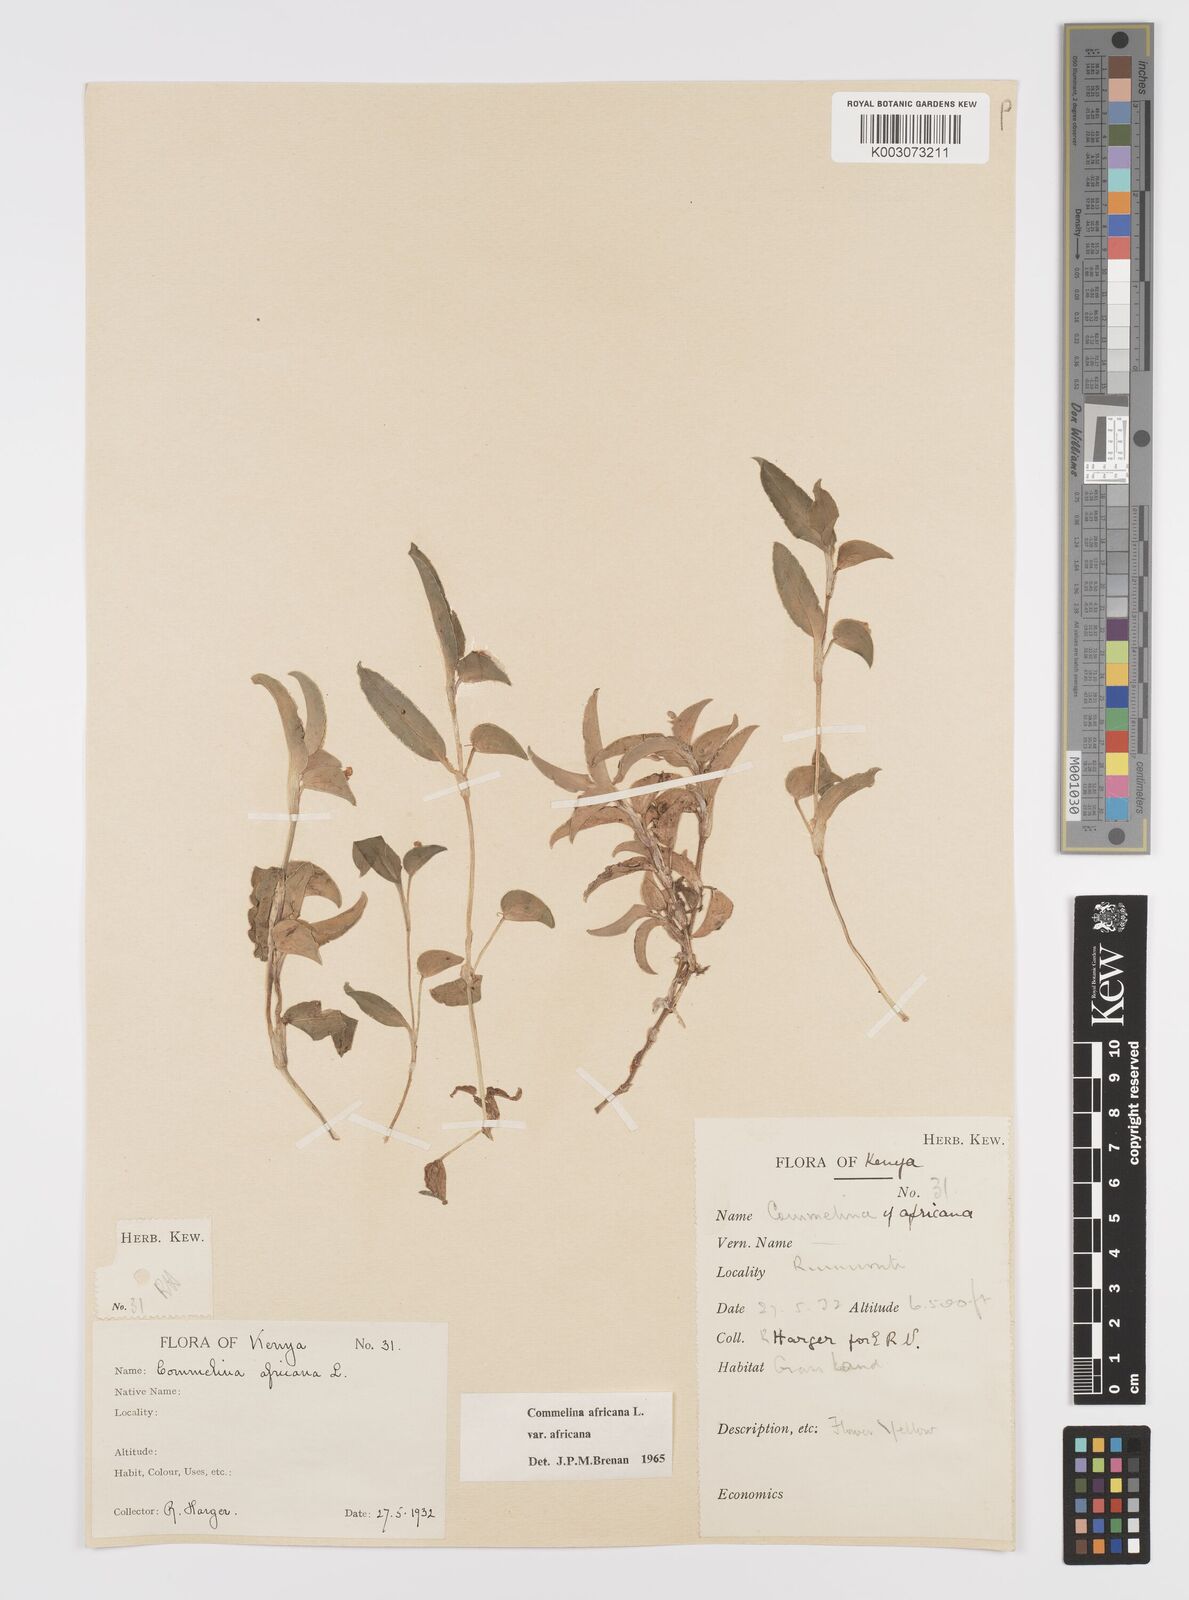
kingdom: Plantae
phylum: Tracheophyta
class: Liliopsida
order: Commelinales
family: Commelinaceae
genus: Commelina
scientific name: Commelina africana
